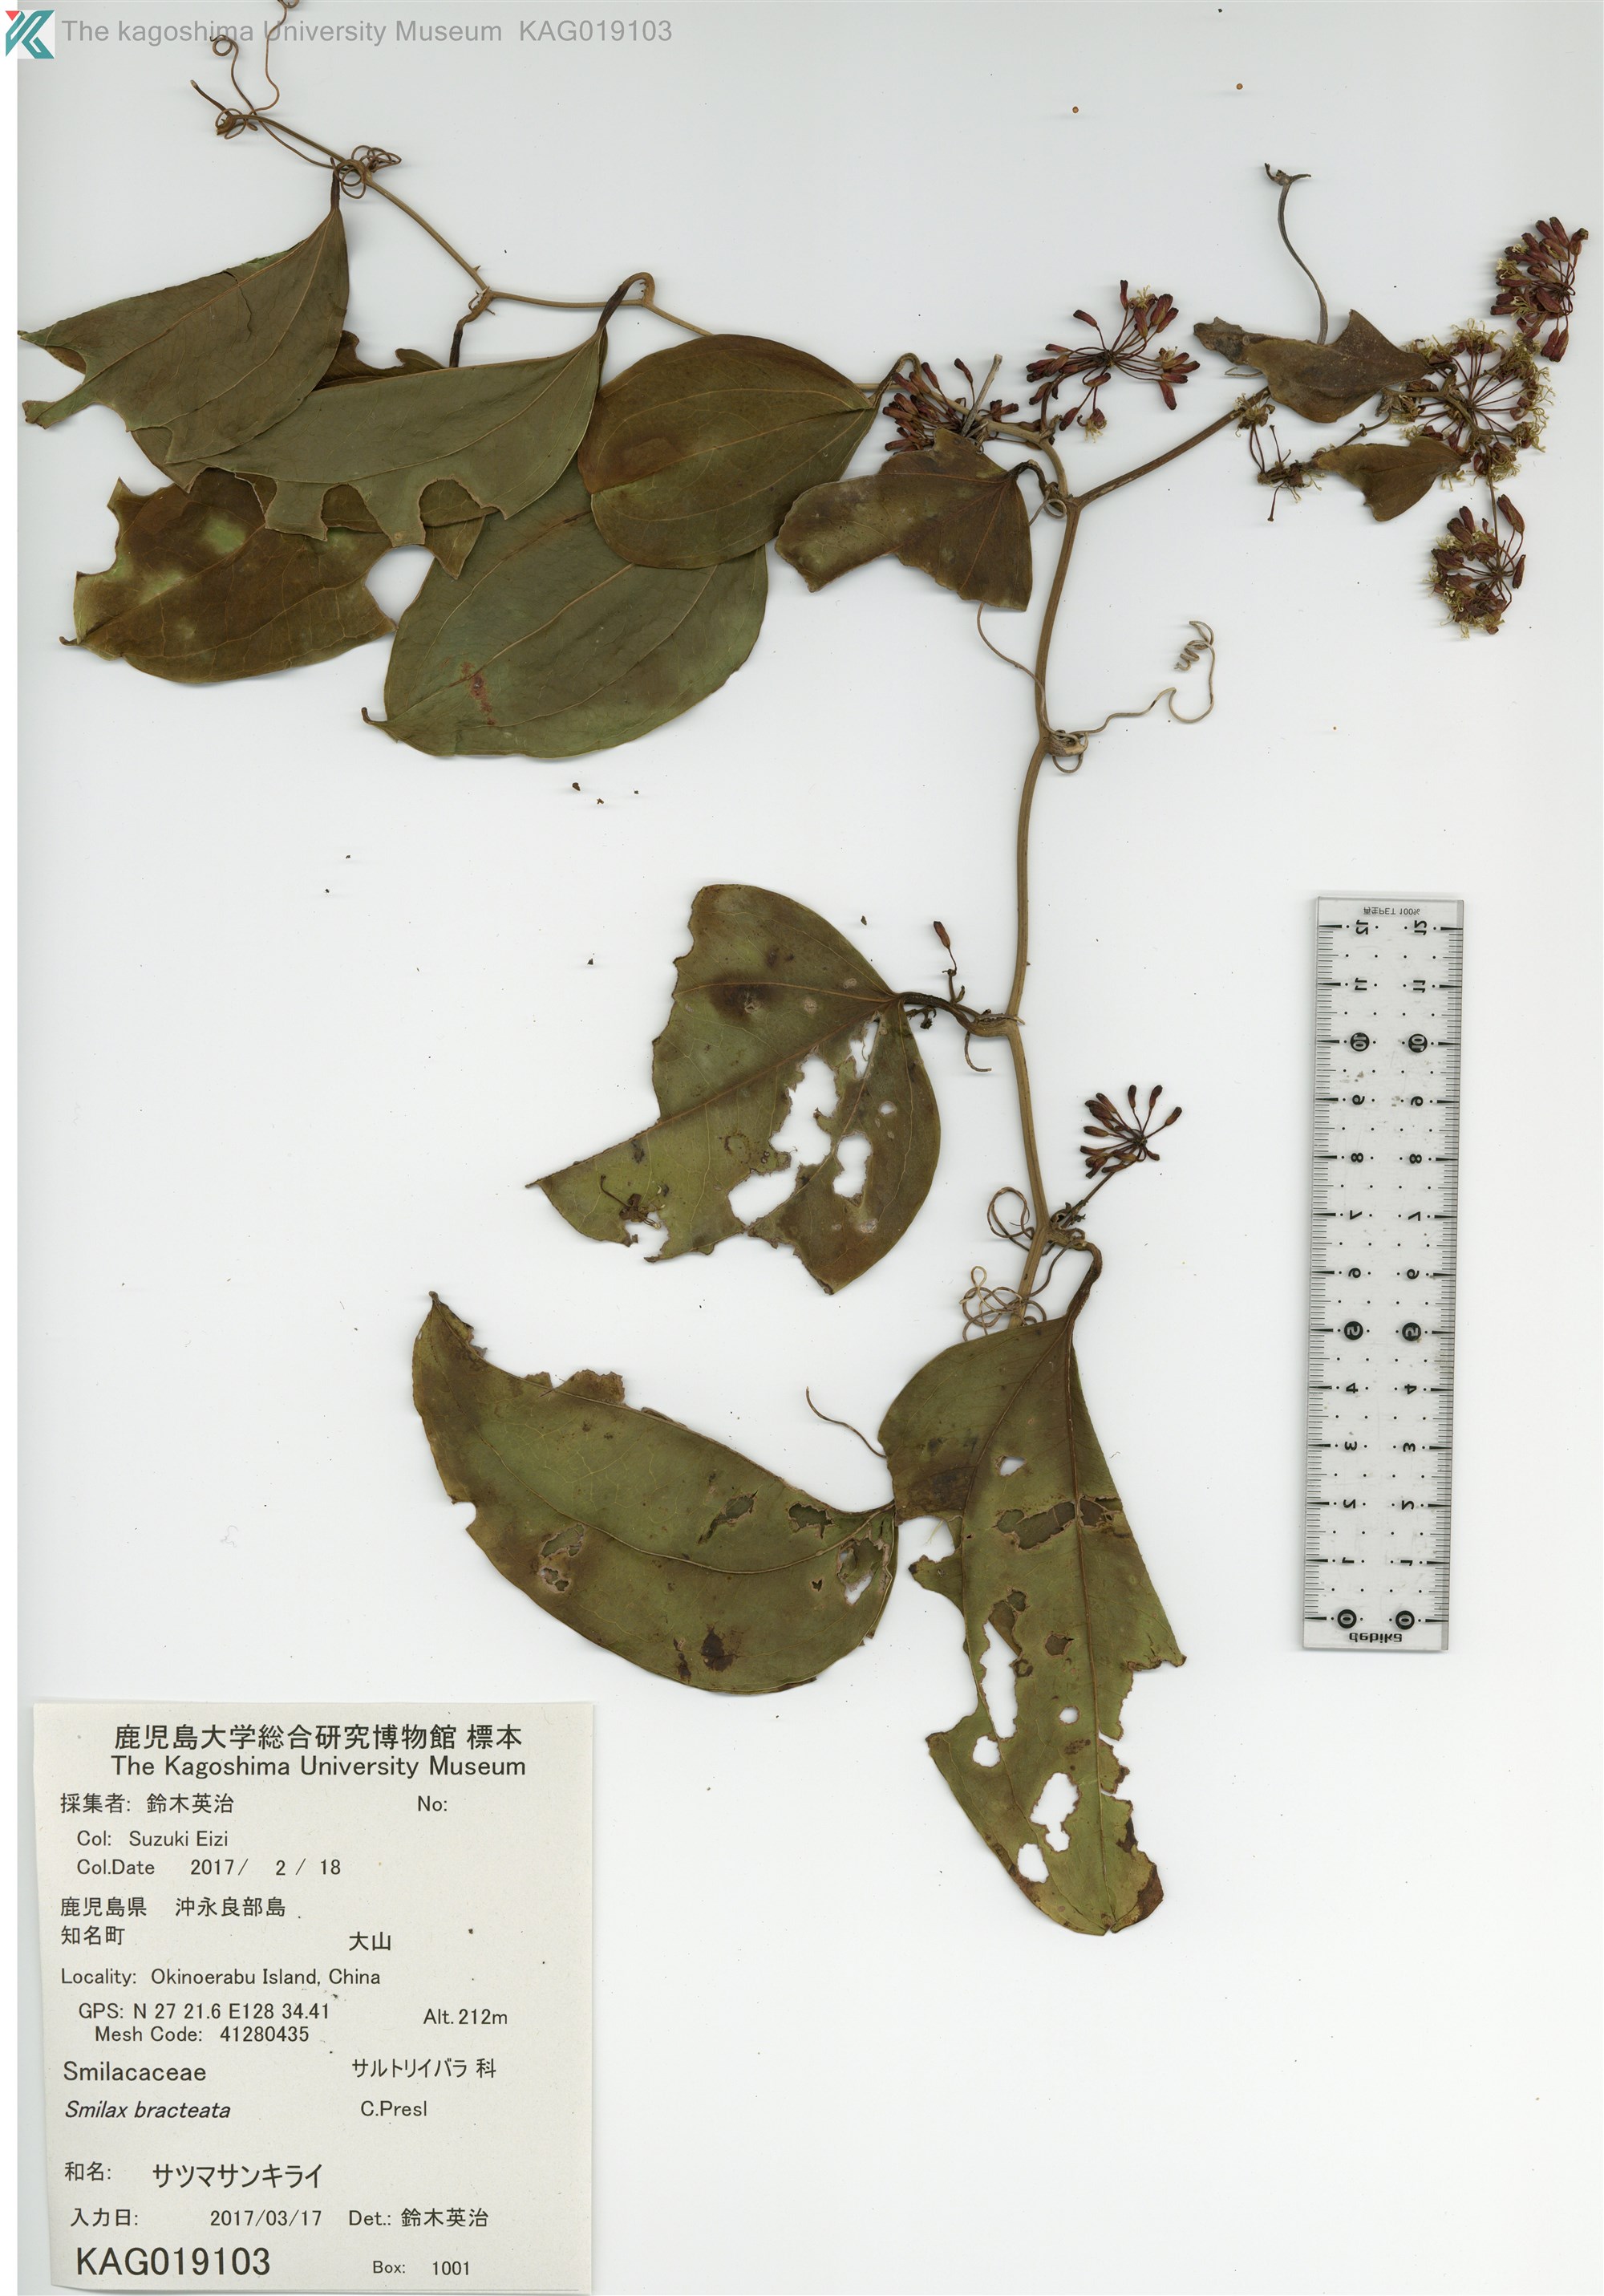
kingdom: Plantae
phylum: Tracheophyta
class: Liliopsida
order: Liliales
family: Smilacaceae
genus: Smilax
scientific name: Smilax bracteata
